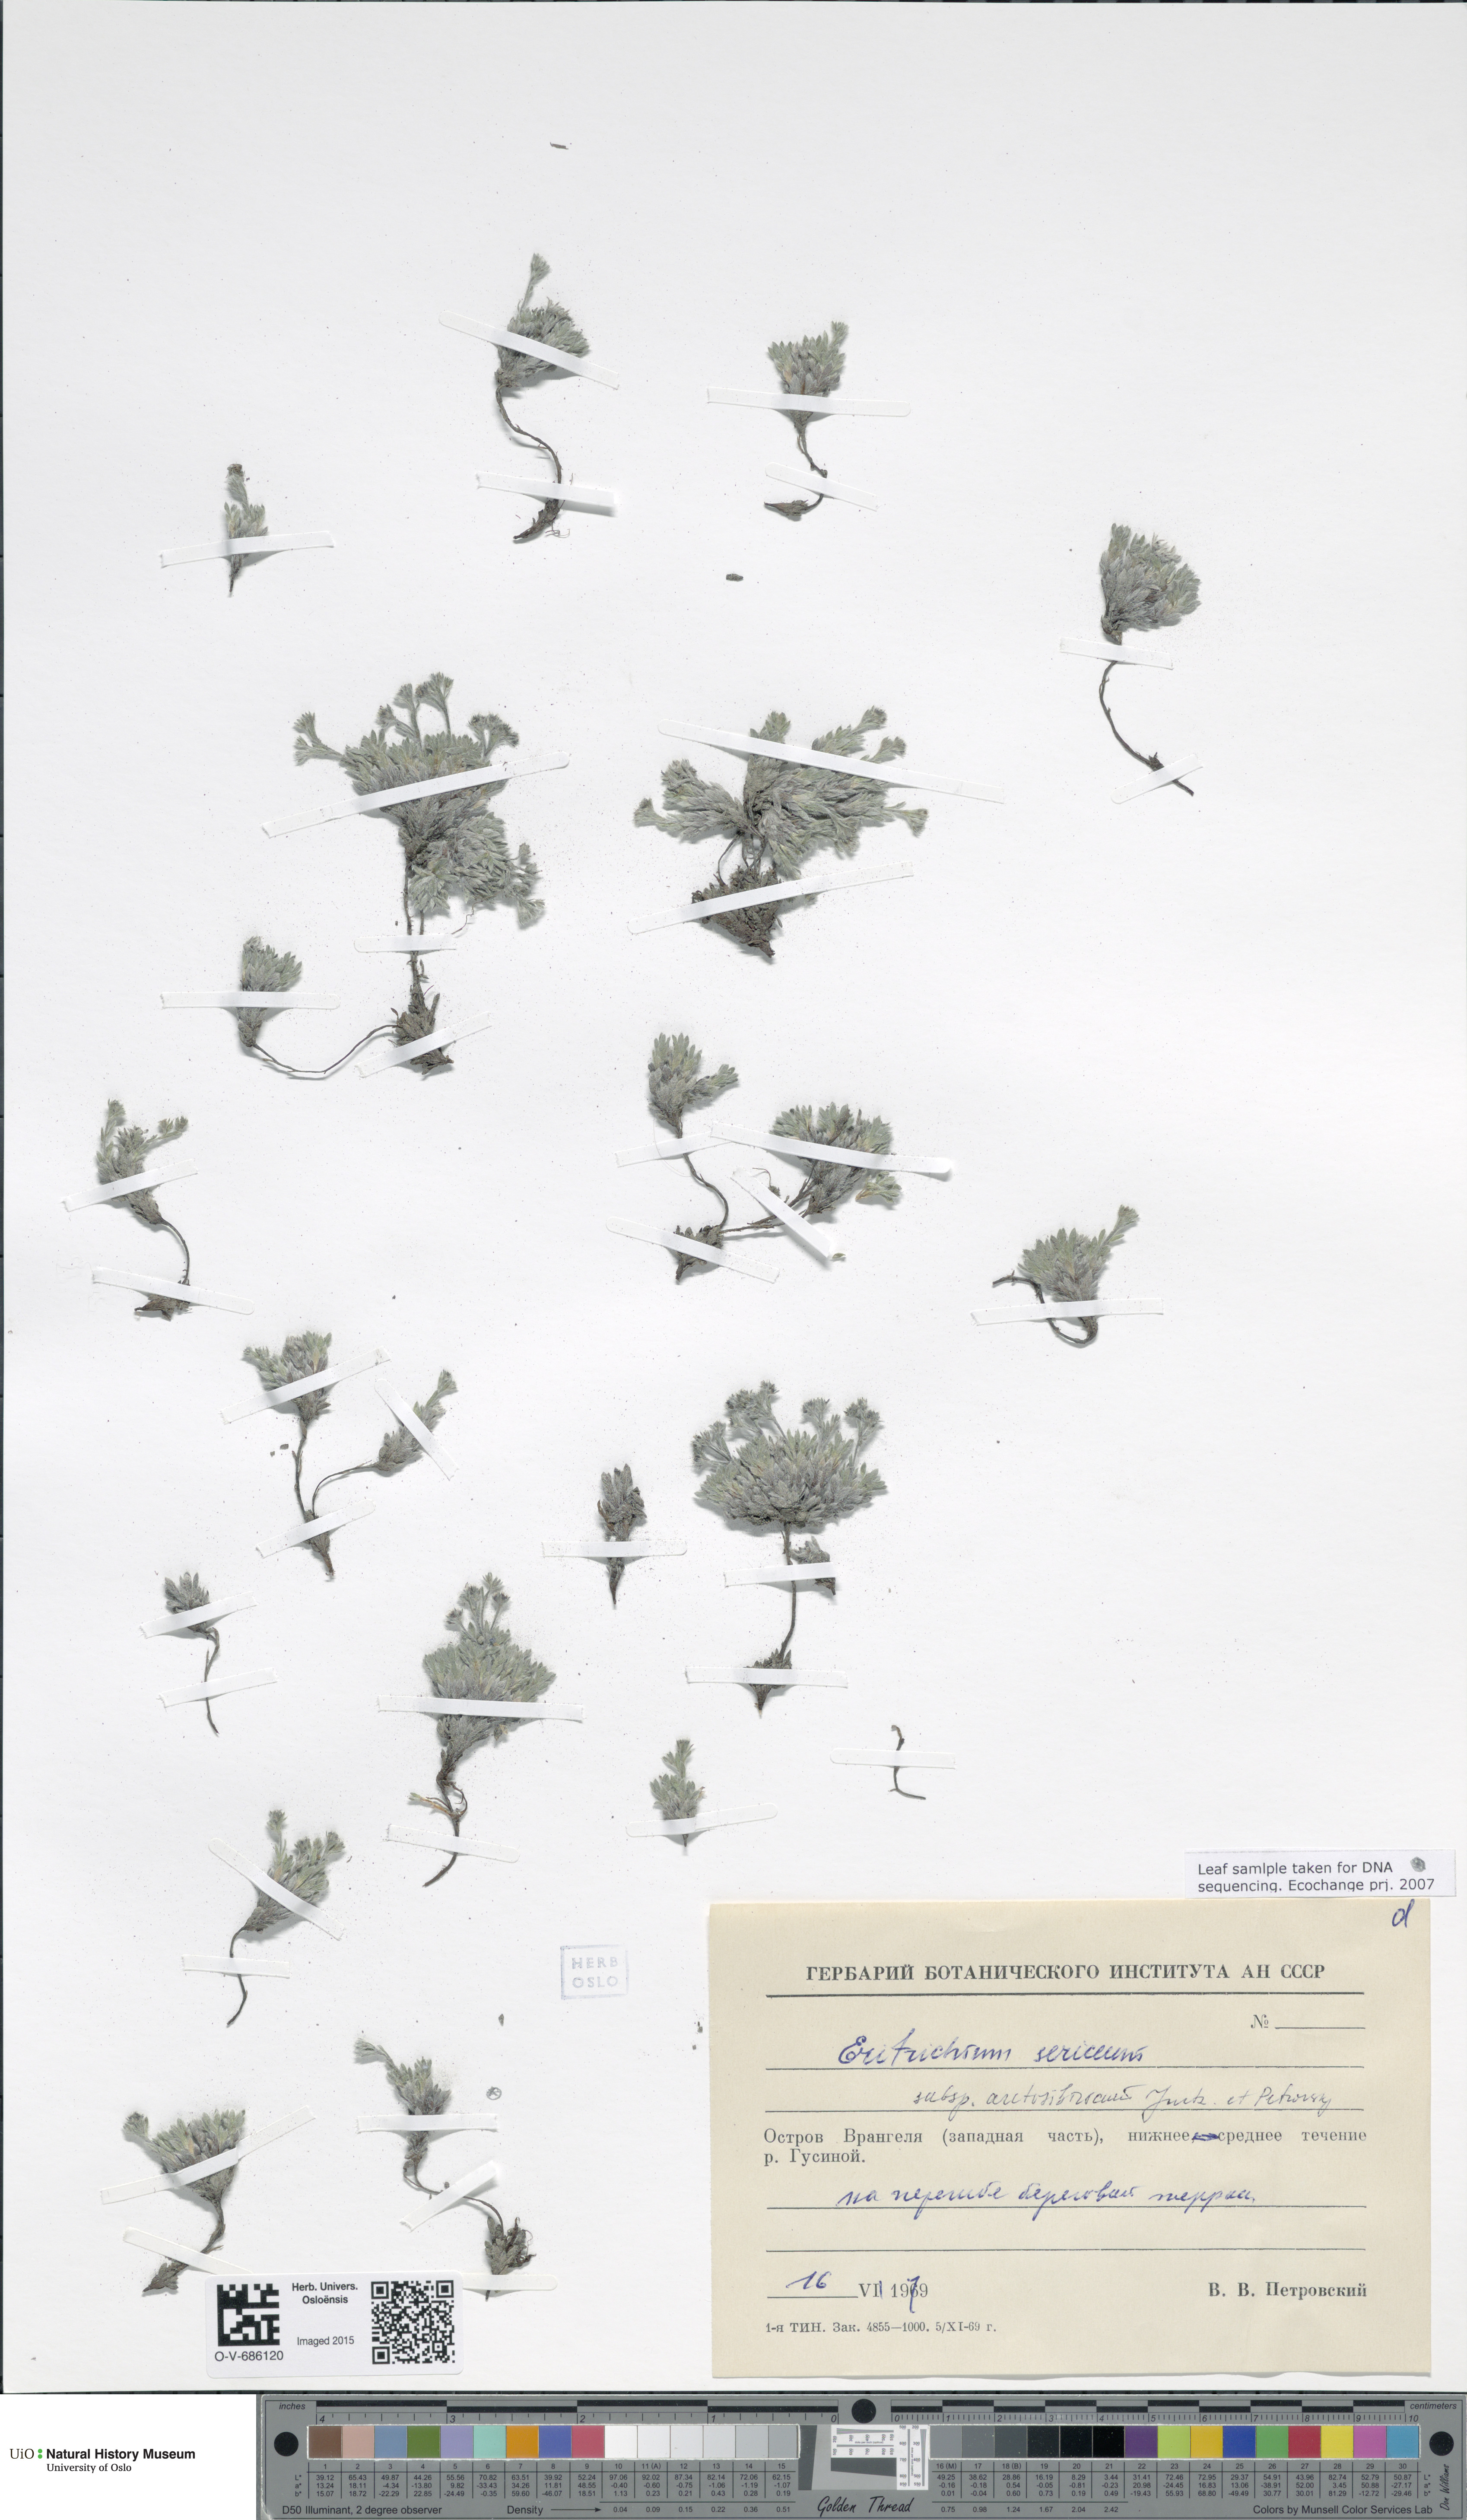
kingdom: Plantae
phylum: Tracheophyta
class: Magnoliopsida
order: Boraginales
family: Boraginaceae
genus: Eritrichium
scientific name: Eritrichium arctisibiricum
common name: Beringian alpine forget-me-not
